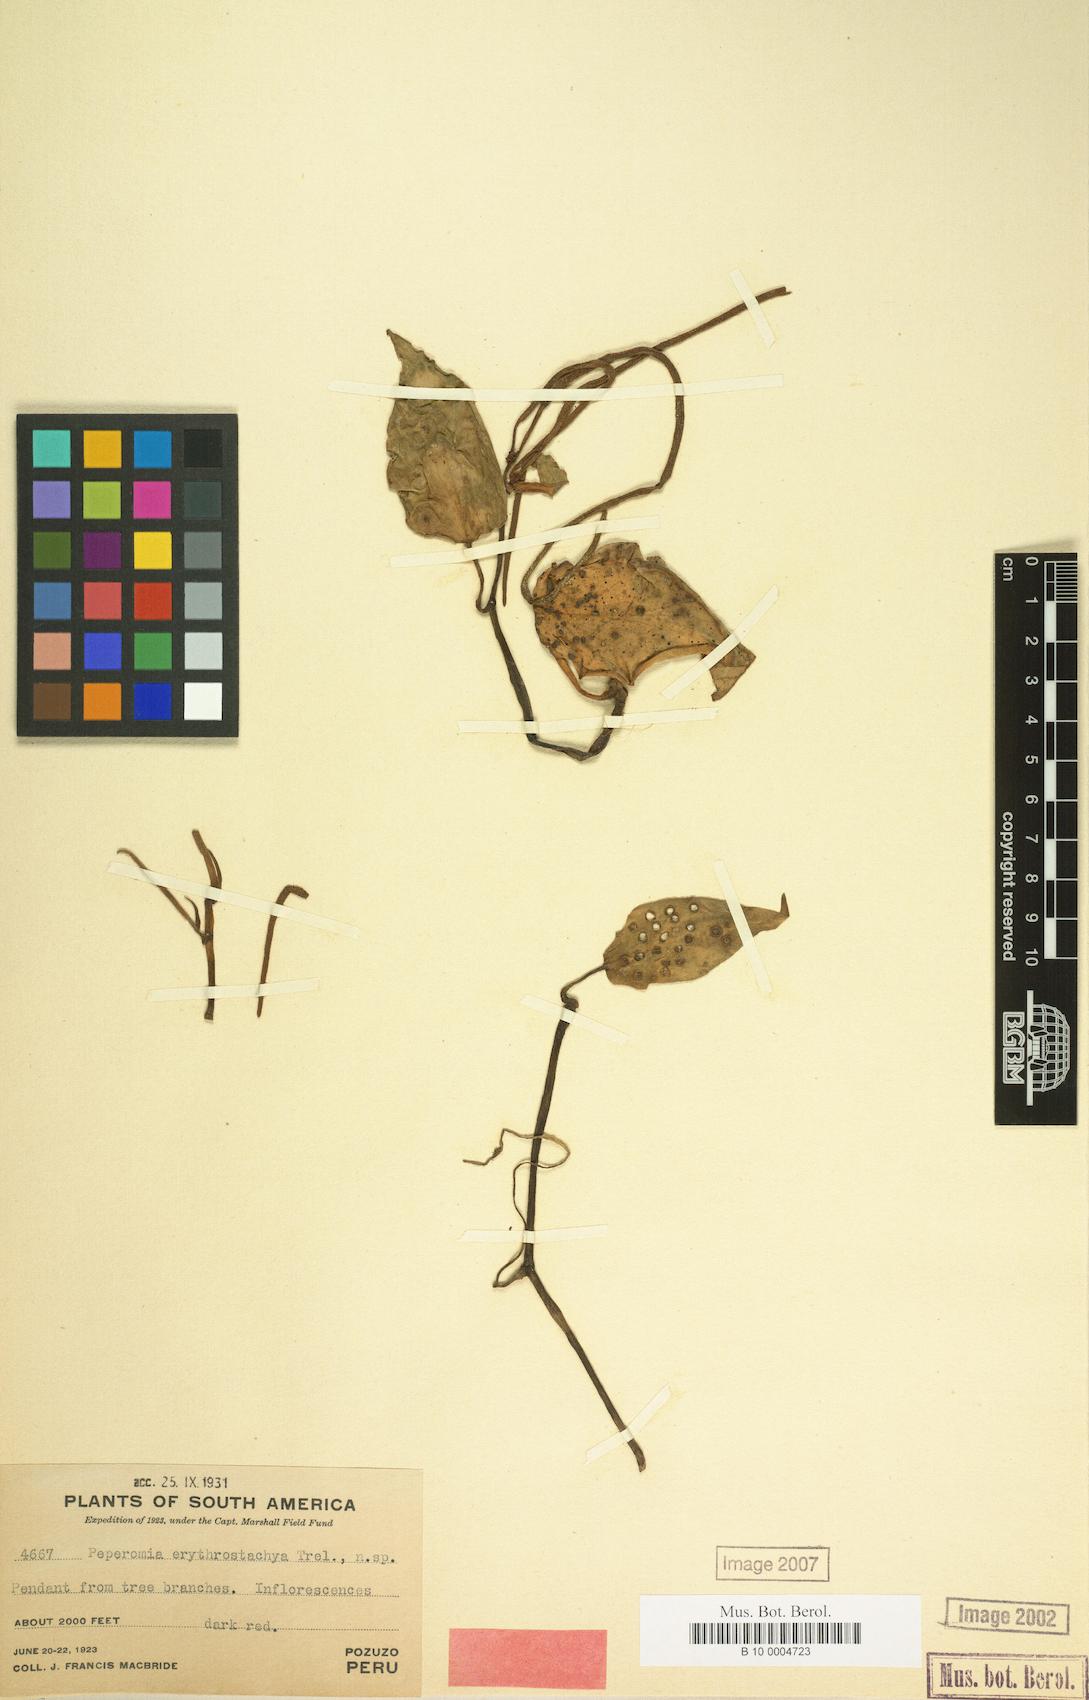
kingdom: Plantae
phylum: Tracheophyta
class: Magnoliopsida
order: Piperales
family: Piperaceae
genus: Peperomia
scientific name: Peperomia erythrostachya
